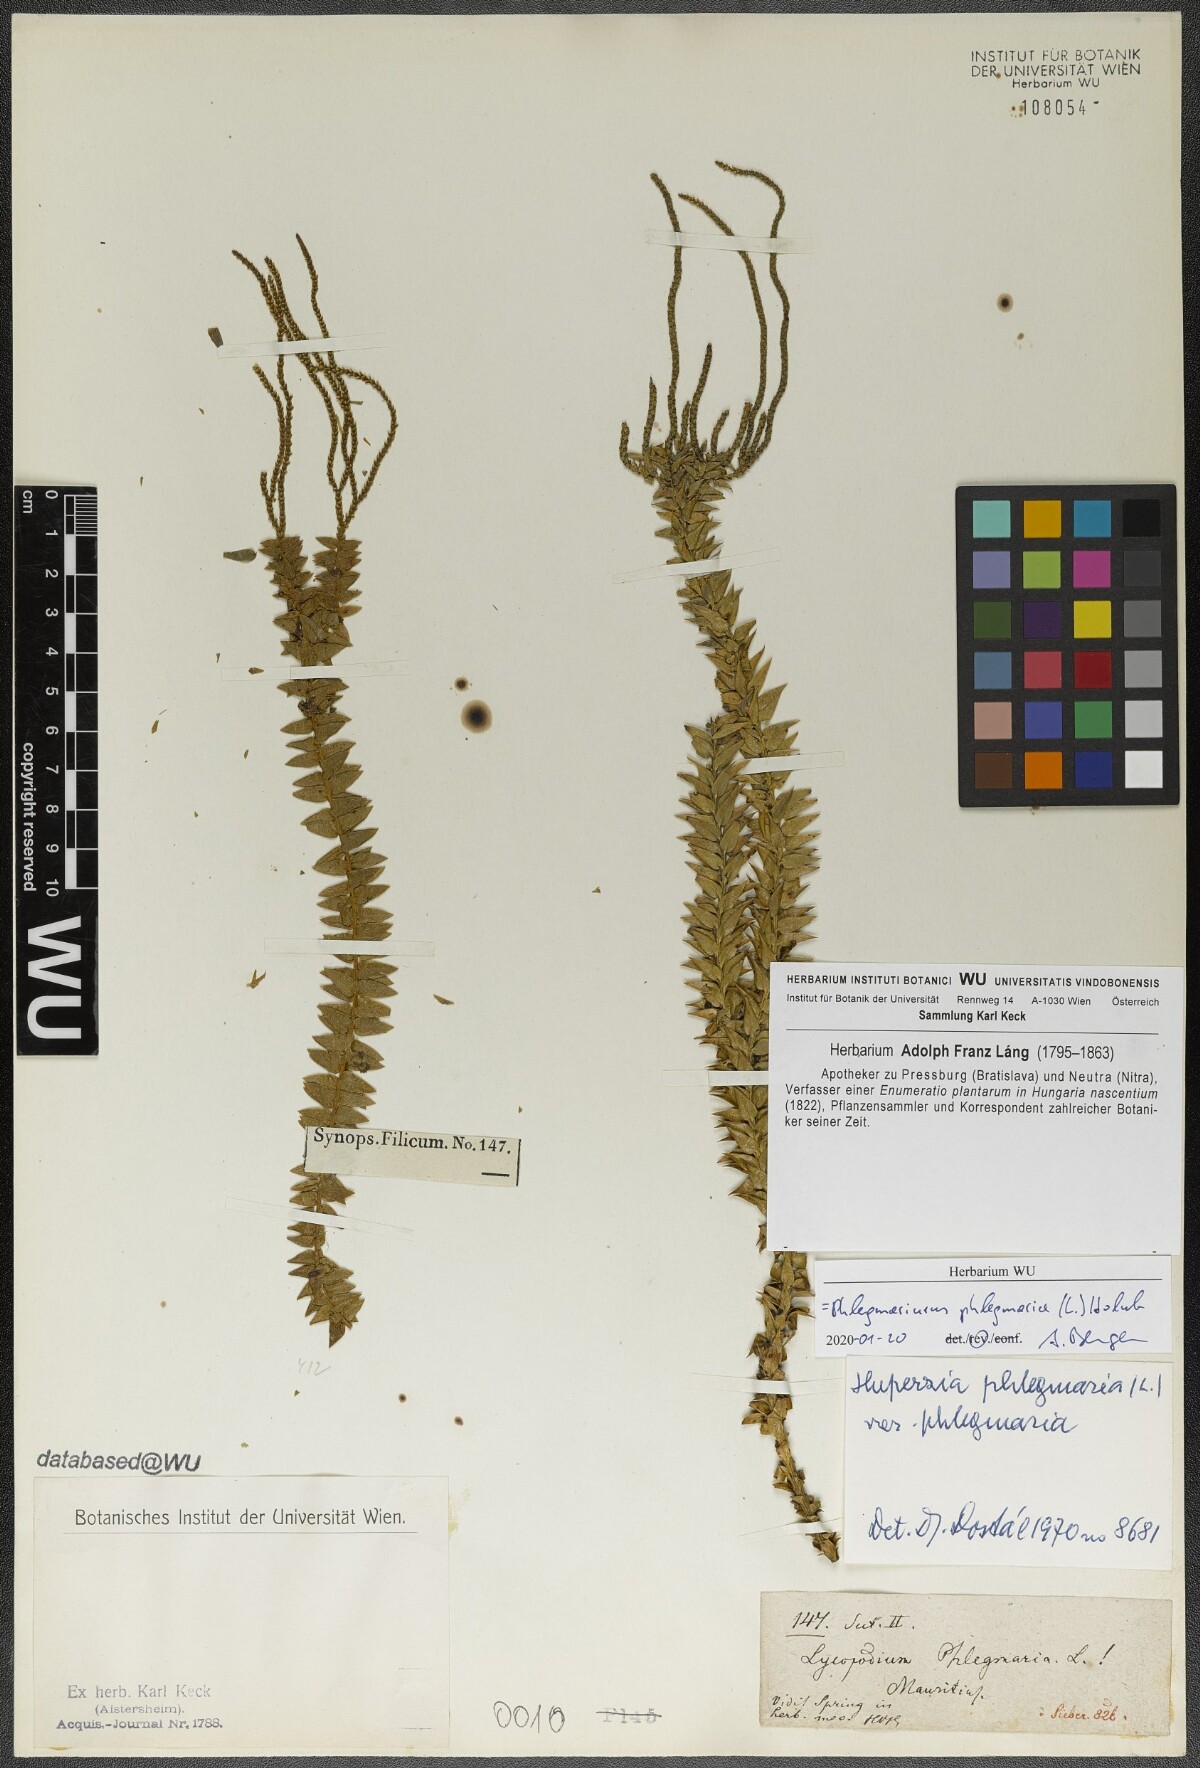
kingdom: Plantae
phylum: Tracheophyta
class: Lycopodiopsida
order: Lycopodiales
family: Lycopodiaceae
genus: Phlegmariurus
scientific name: Phlegmariurus phlegmaria
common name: Coarse tassel-fern
